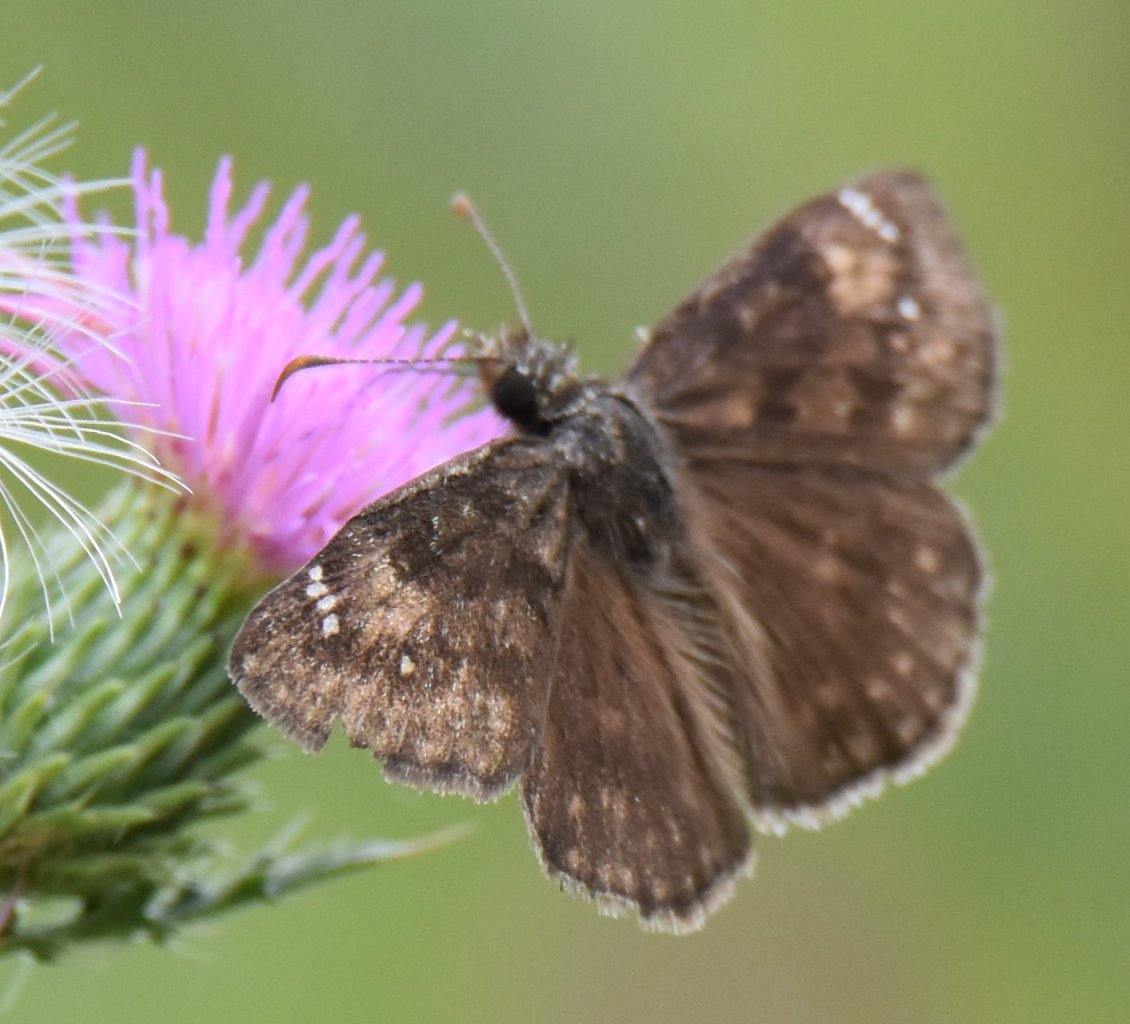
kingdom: Animalia
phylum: Arthropoda
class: Insecta
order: Lepidoptera
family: Hesperiidae
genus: Gesta
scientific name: Gesta
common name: Wild Indigo Duskywing
